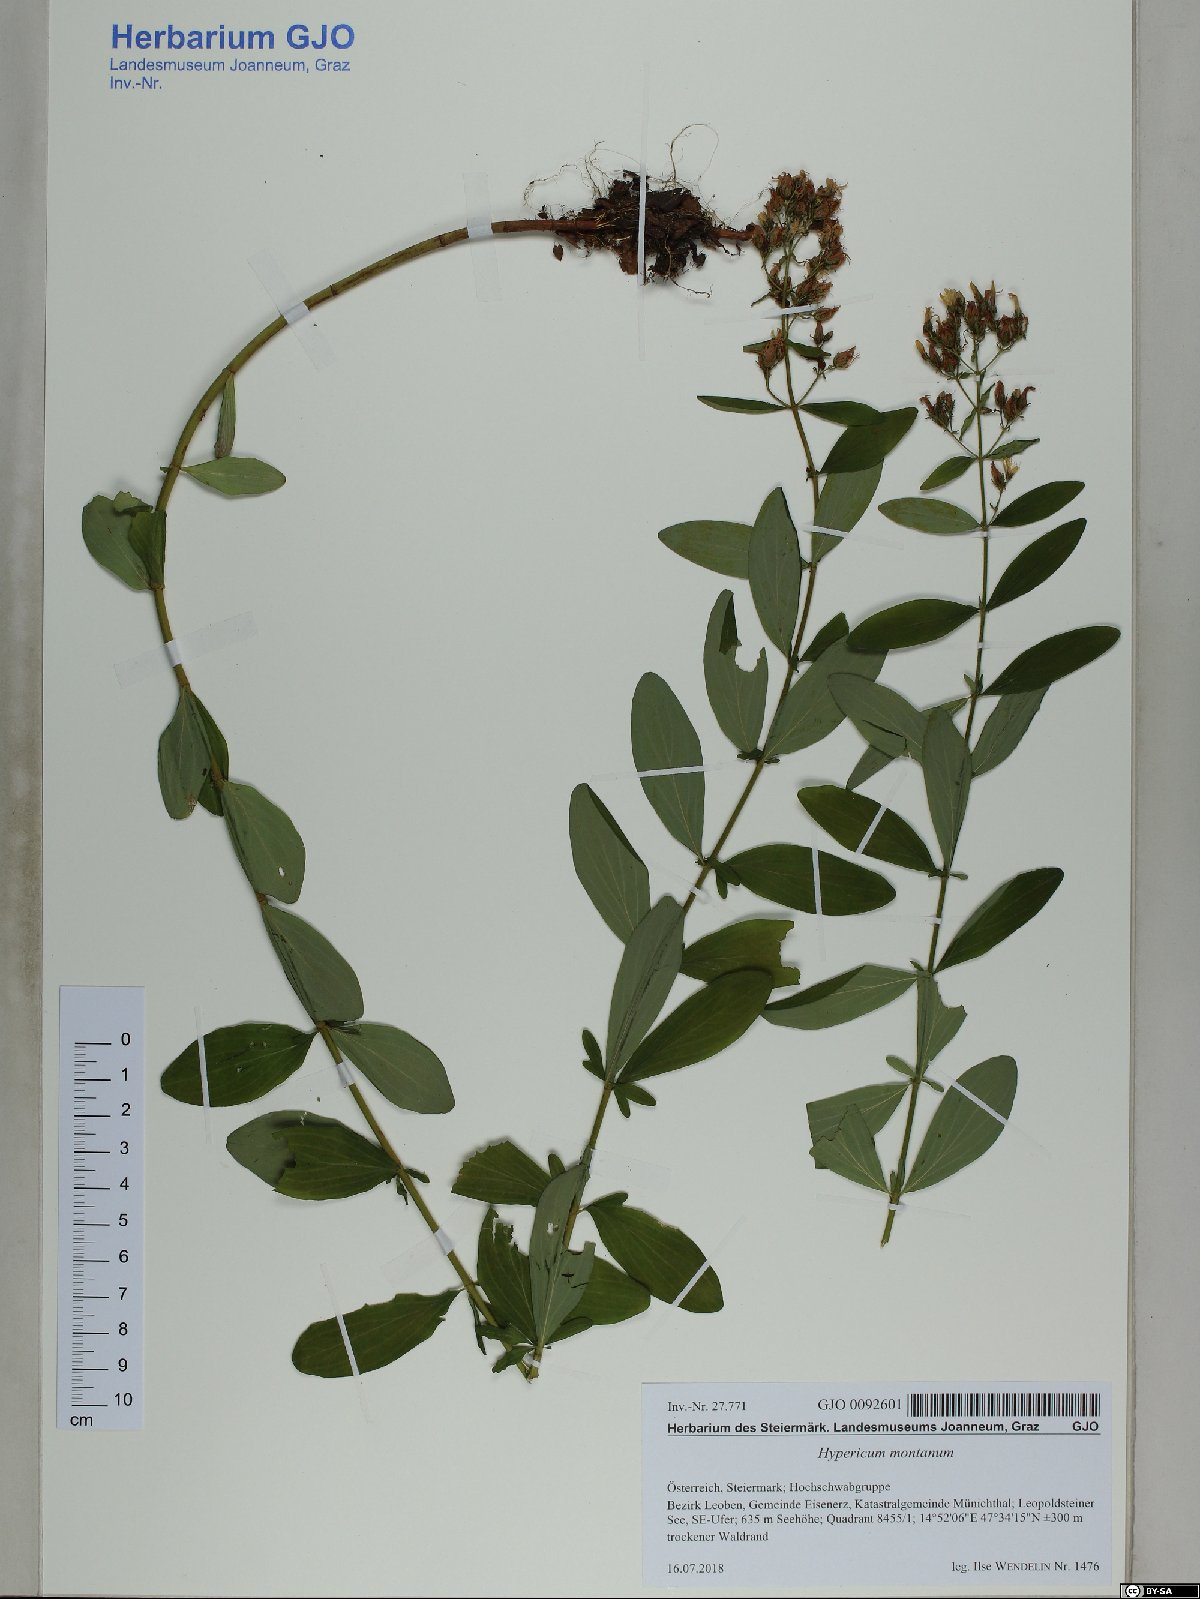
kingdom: Plantae
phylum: Tracheophyta
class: Magnoliopsida
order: Malpighiales
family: Hypericaceae
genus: Hypericum
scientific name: Hypericum montanum
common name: Pale st. john's-wort
